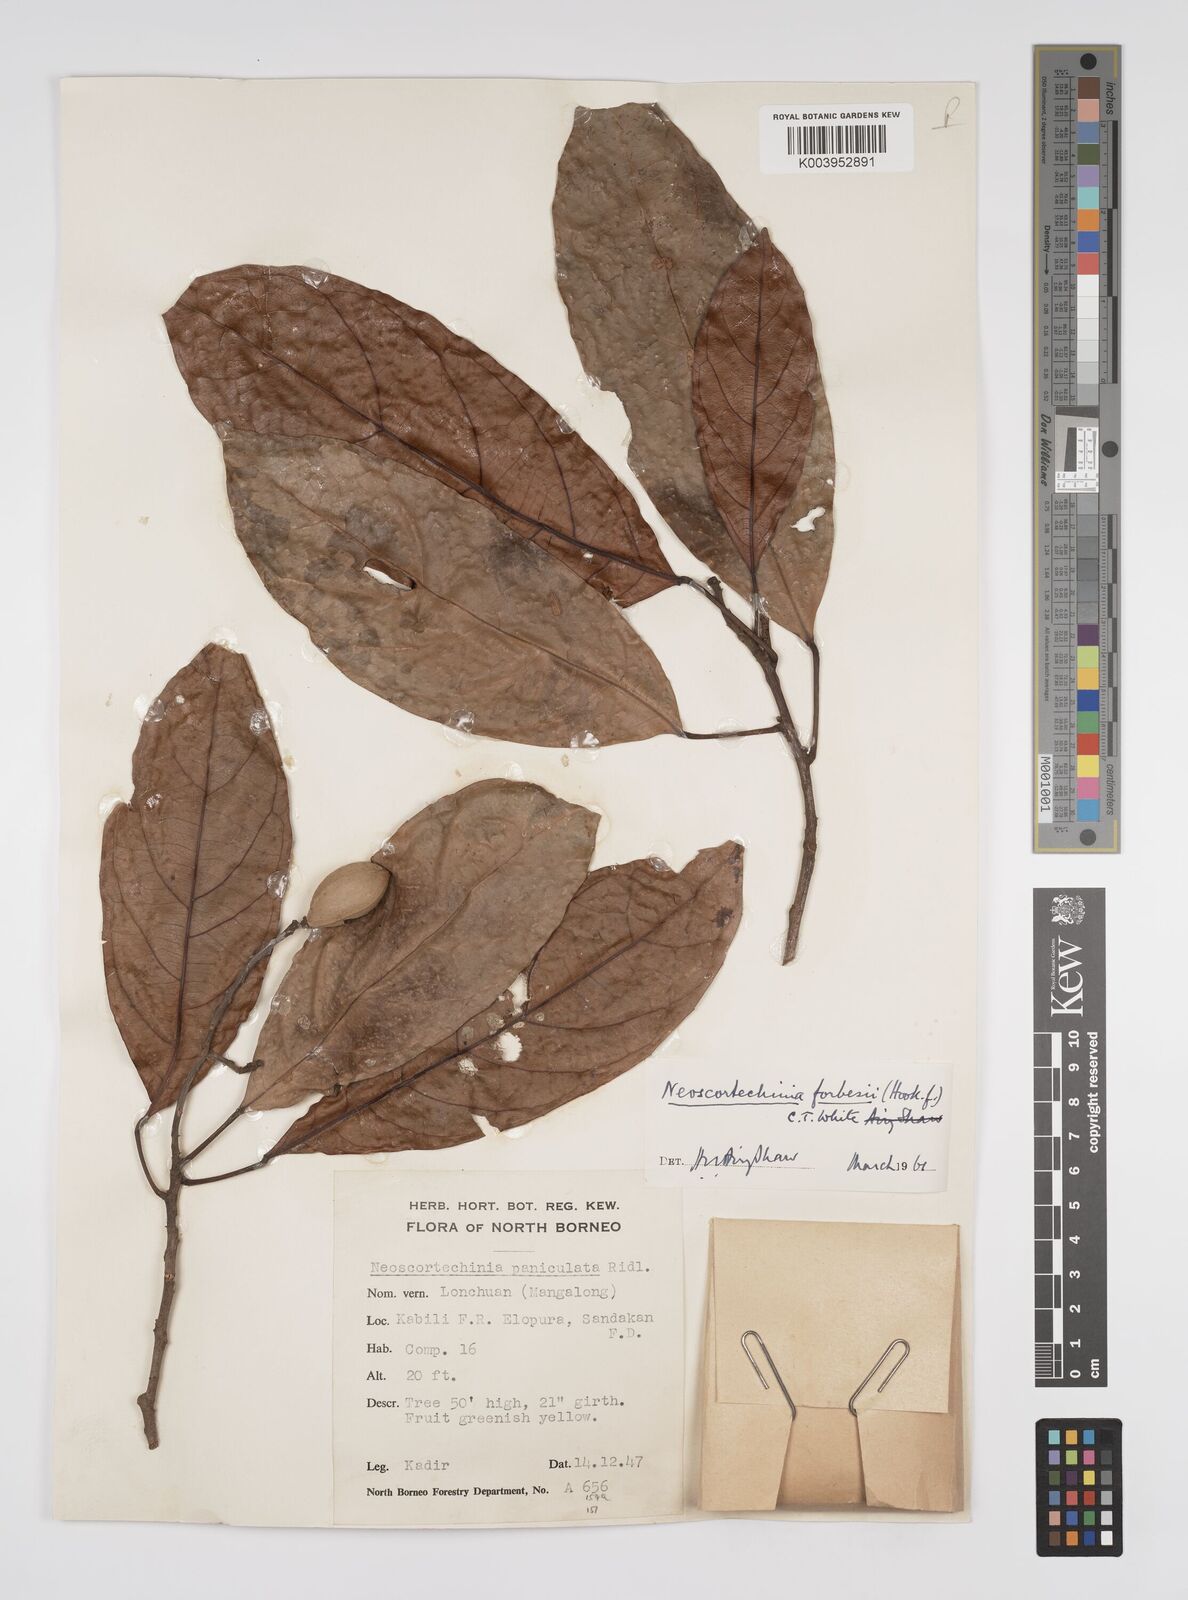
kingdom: Plantae
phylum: Tracheophyta
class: Magnoliopsida
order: Malpighiales
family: Euphorbiaceae
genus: Neoscortechinia
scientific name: Neoscortechinia philippinensis
